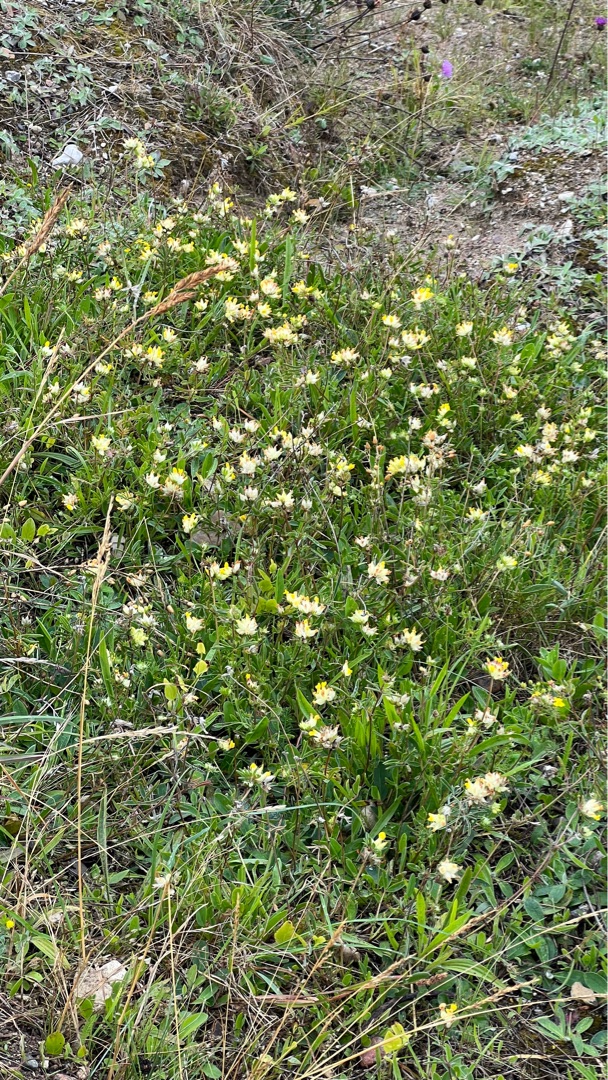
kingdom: Plantae
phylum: Tracheophyta
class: Magnoliopsida
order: Fabales
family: Fabaceae
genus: Anthyllis
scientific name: Anthyllis vulneraria
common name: Rundbælg
